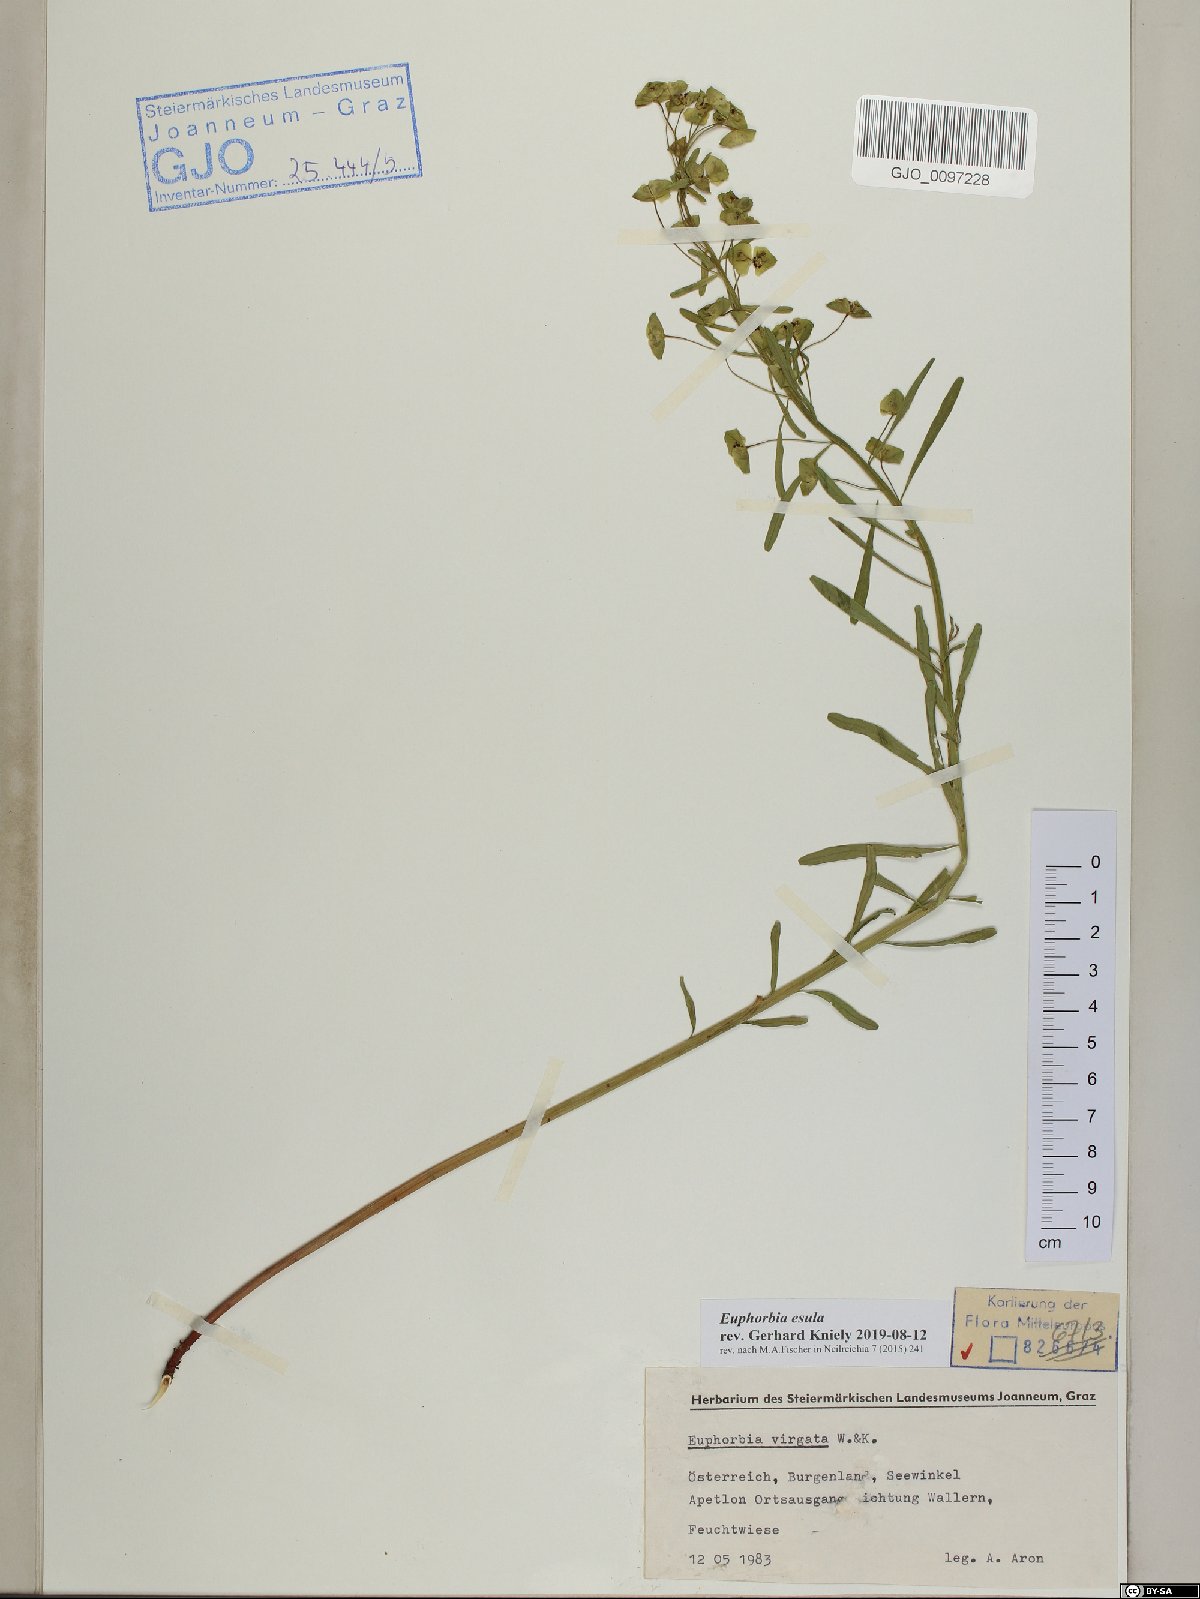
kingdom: Plantae
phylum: Tracheophyta
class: Magnoliopsida
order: Malpighiales
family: Euphorbiaceae
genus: Euphorbia
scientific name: Euphorbia esula
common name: Leafy spurge
